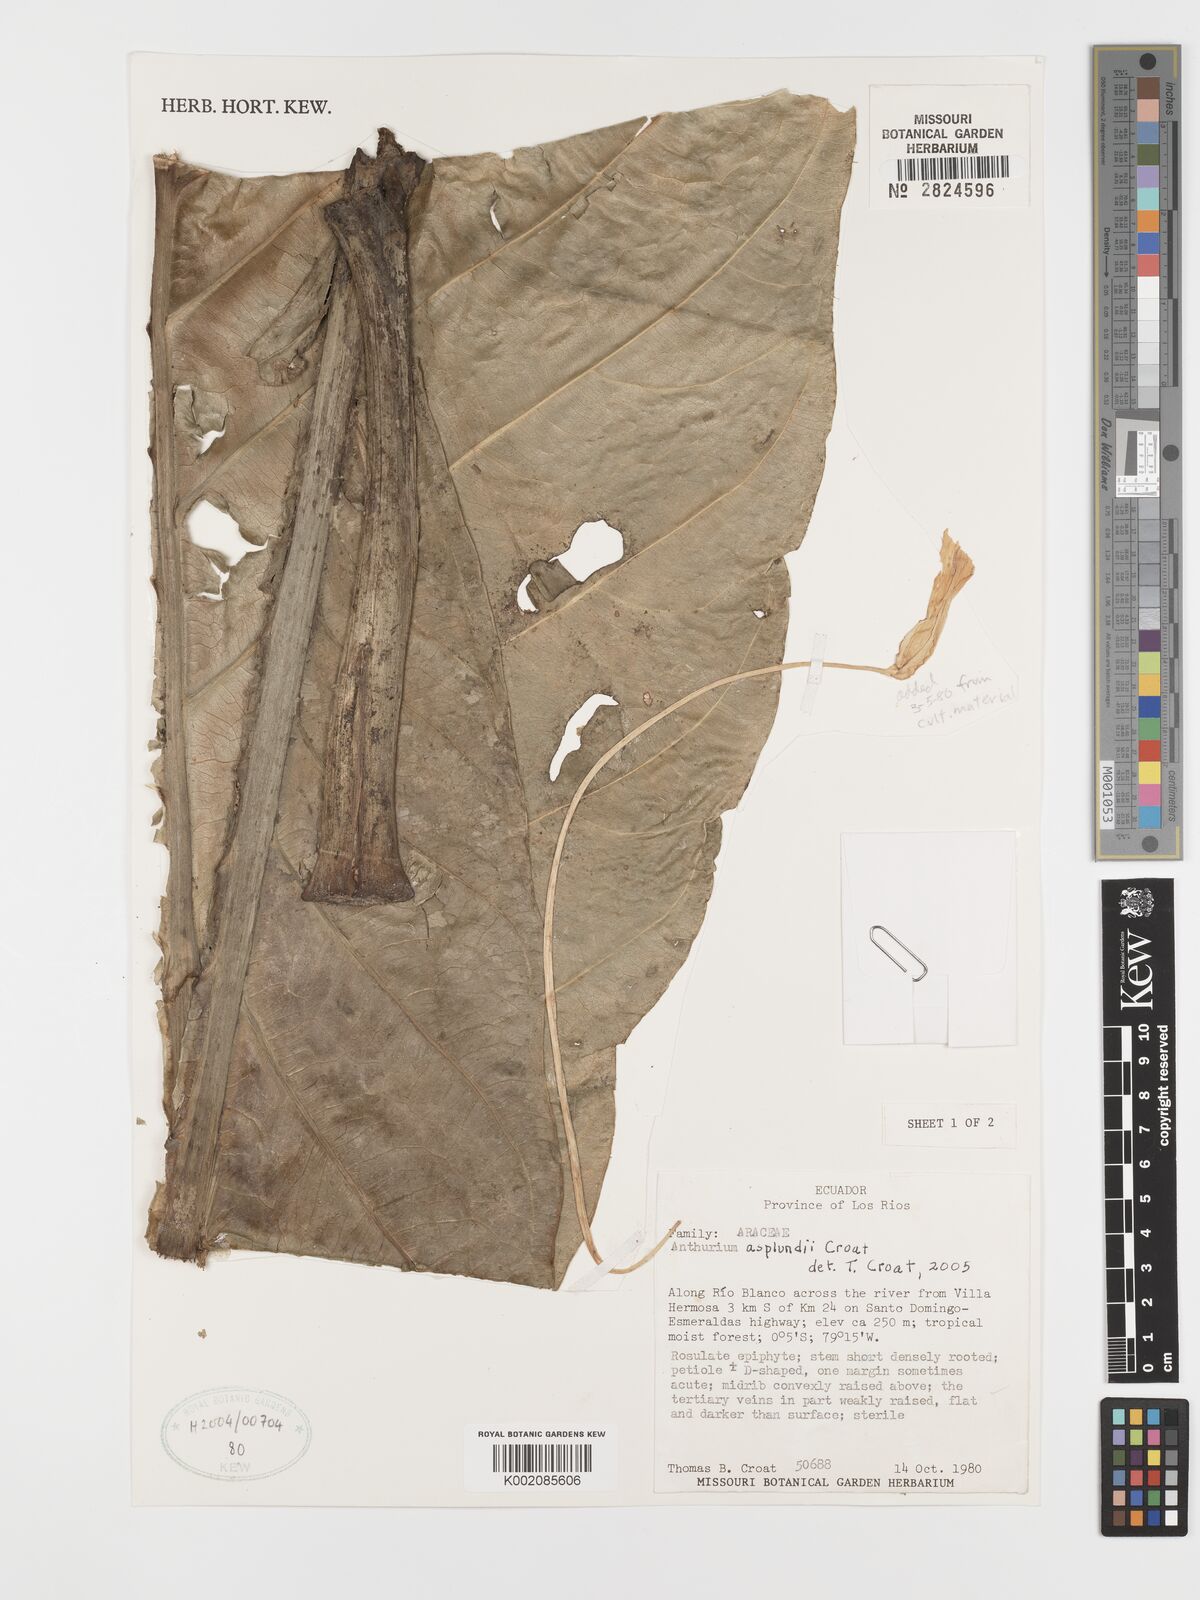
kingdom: Plantae
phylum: Tracheophyta
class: Liliopsida
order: Alismatales
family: Araceae
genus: Anthurium
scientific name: Anthurium asplundii
